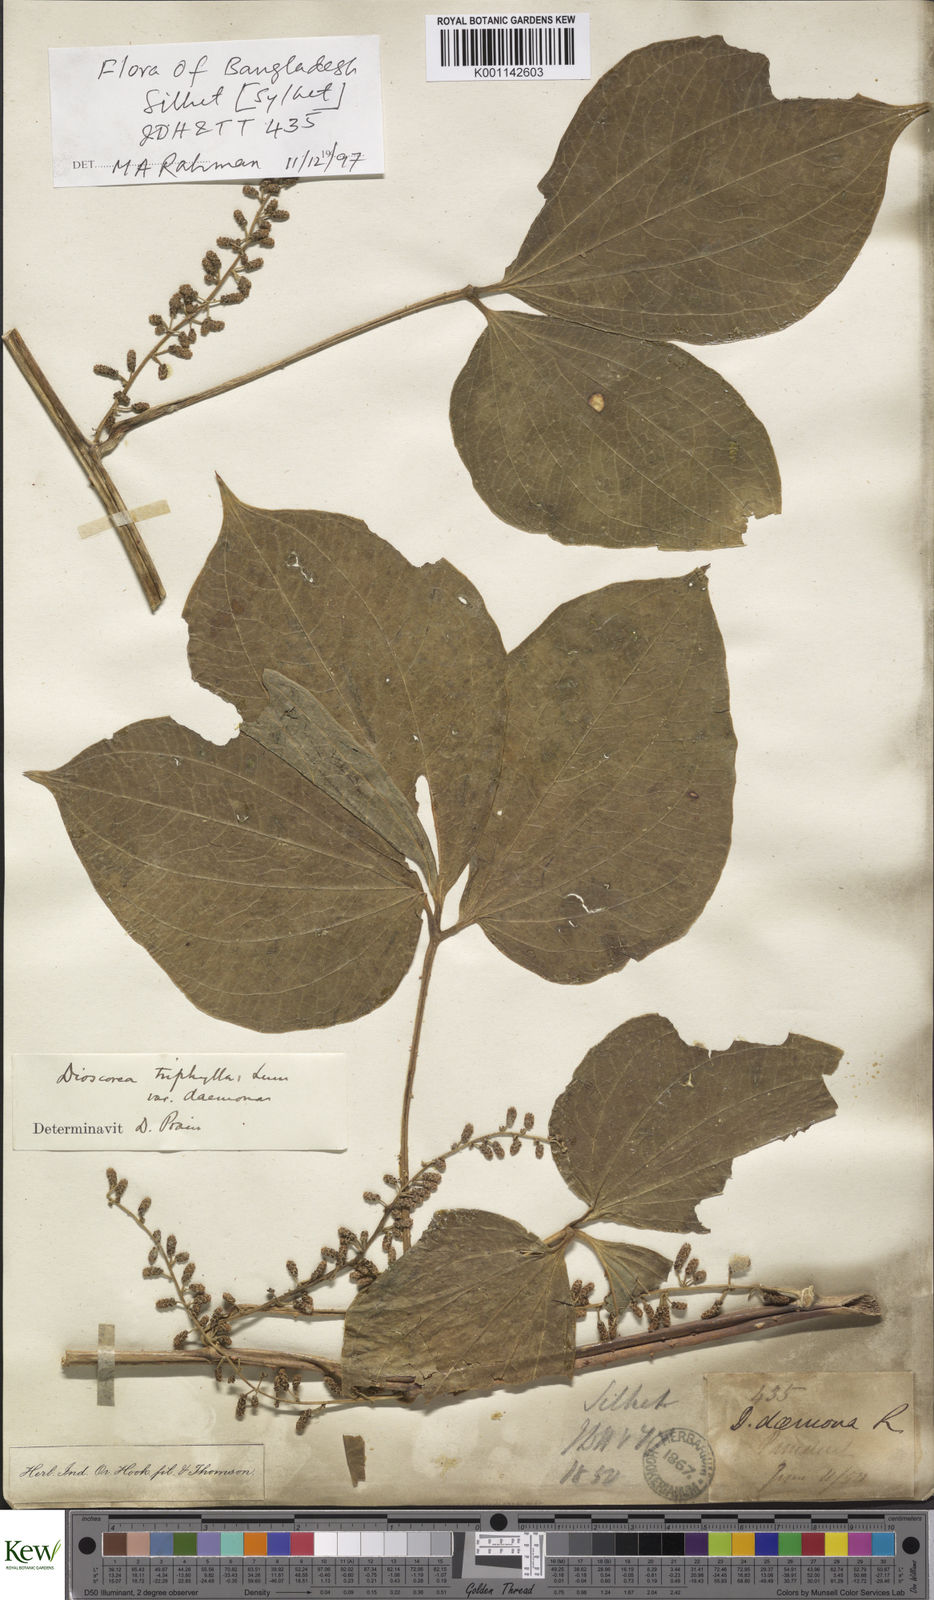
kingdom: Plantae
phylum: Tracheophyta
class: Liliopsida
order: Dioscoreales
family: Dioscoreaceae
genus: Dioscorea
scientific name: Dioscorea pentaphylla
